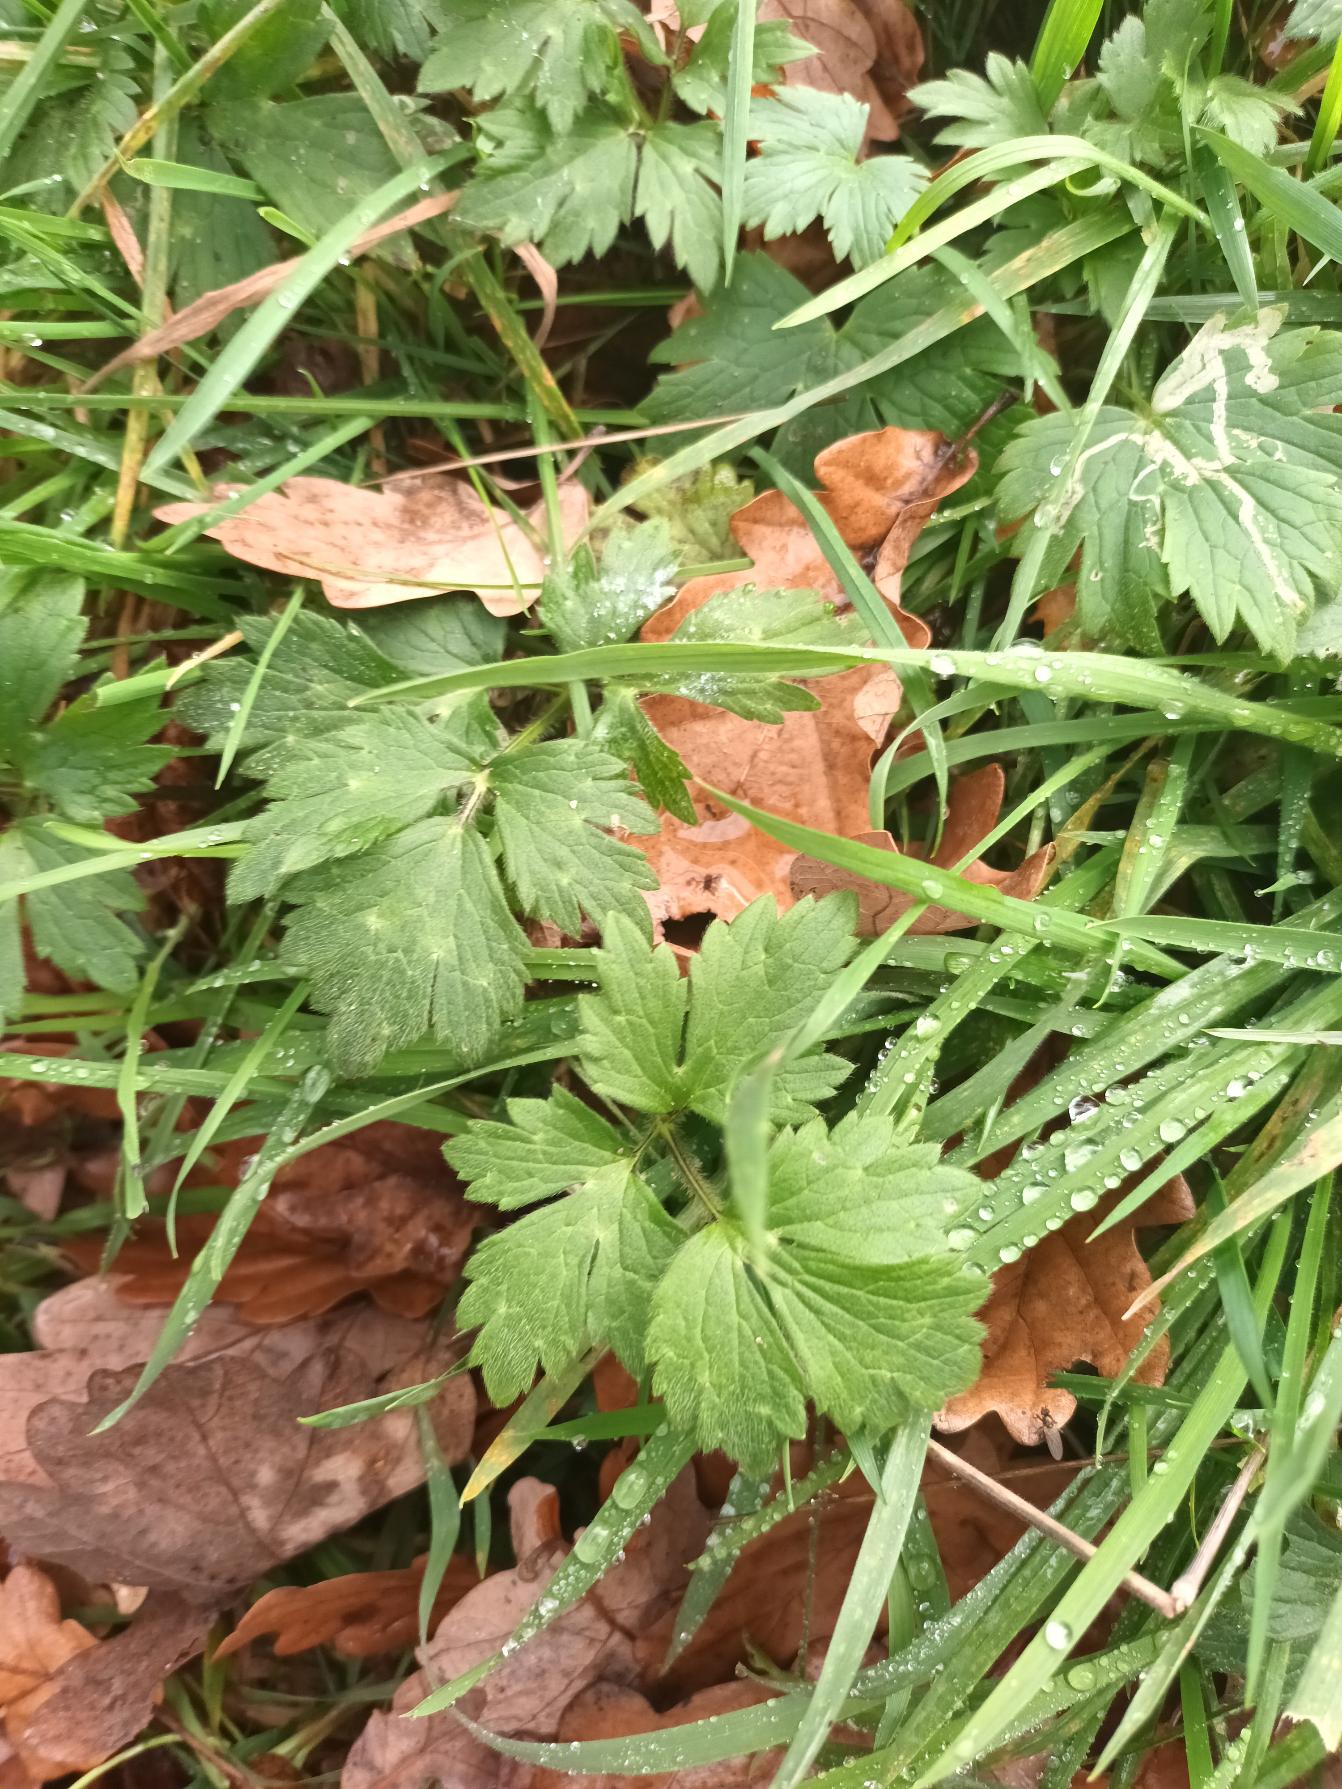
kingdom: Plantae
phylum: Tracheophyta
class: Magnoliopsida
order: Ranunculales
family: Ranunculaceae
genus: Ranunculus
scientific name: Ranunculus repens
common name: Lav ranunkel
